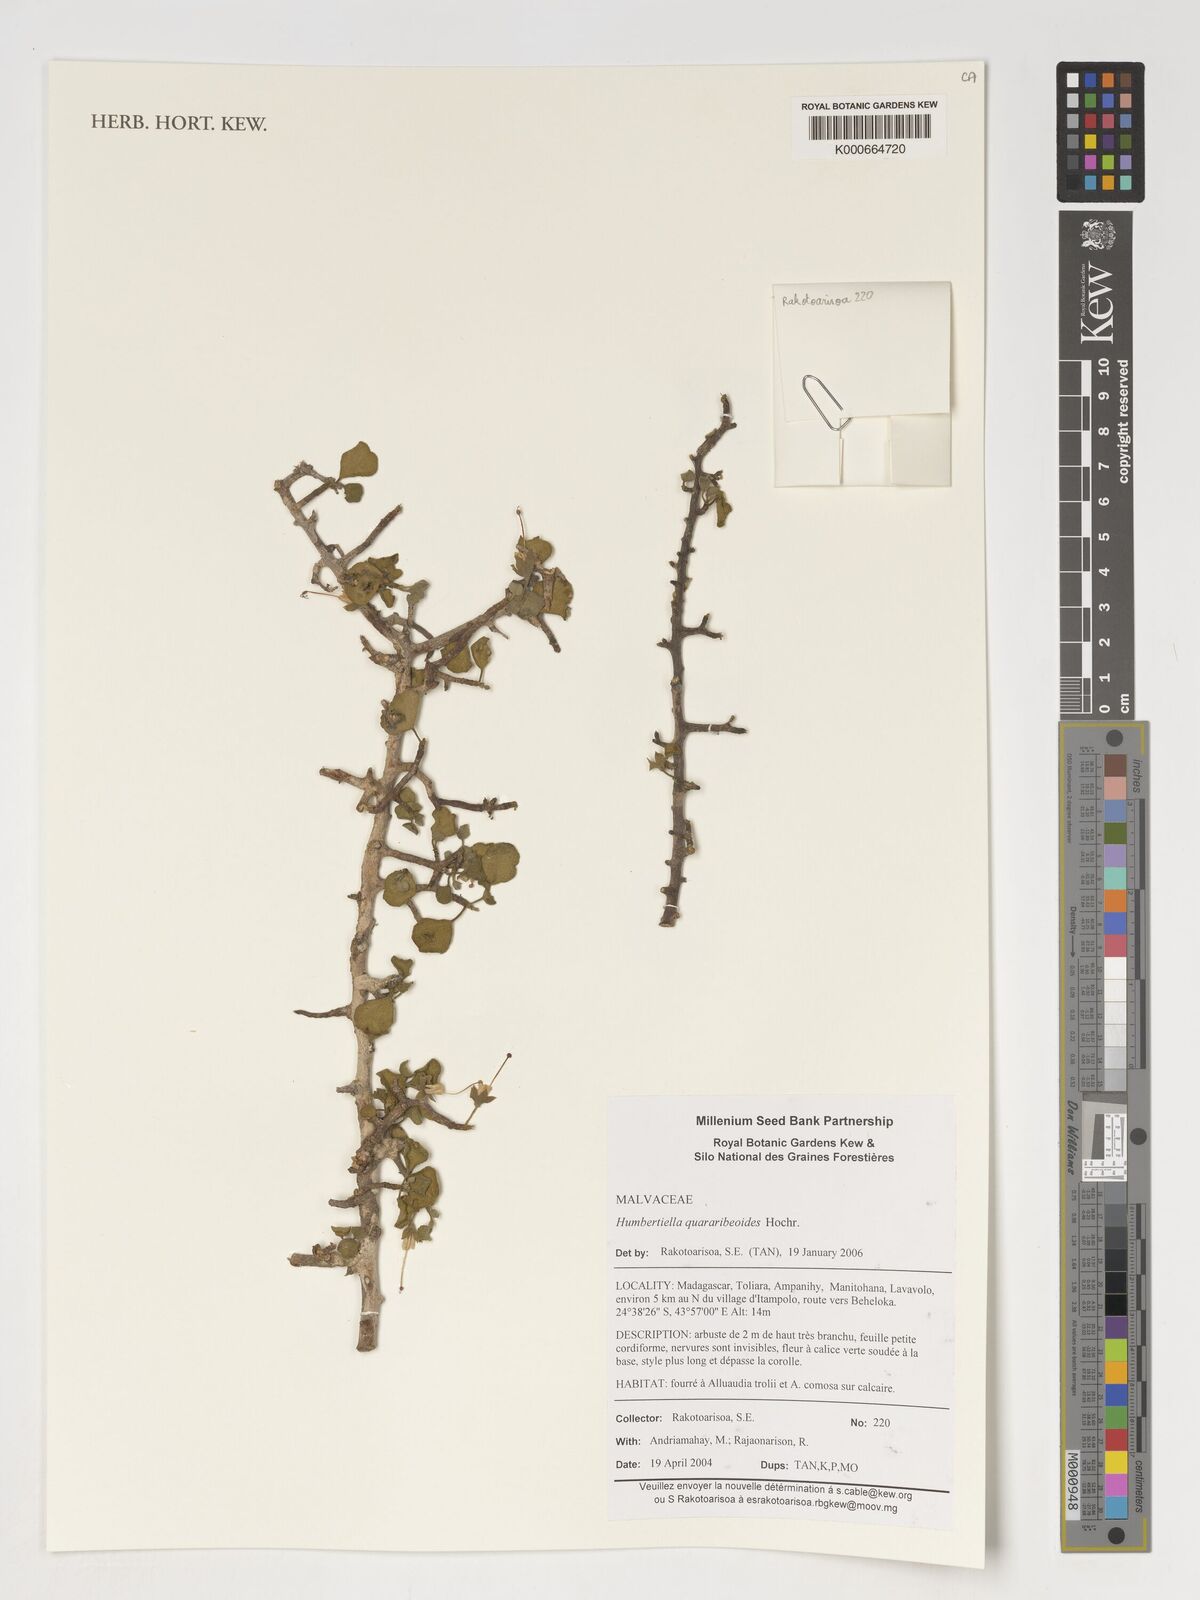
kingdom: Plantae
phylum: Tracheophyta
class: Magnoliopsida
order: Malvales
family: Malvaceae
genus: Humbertiella
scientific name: Humbertiella quararibeoides
